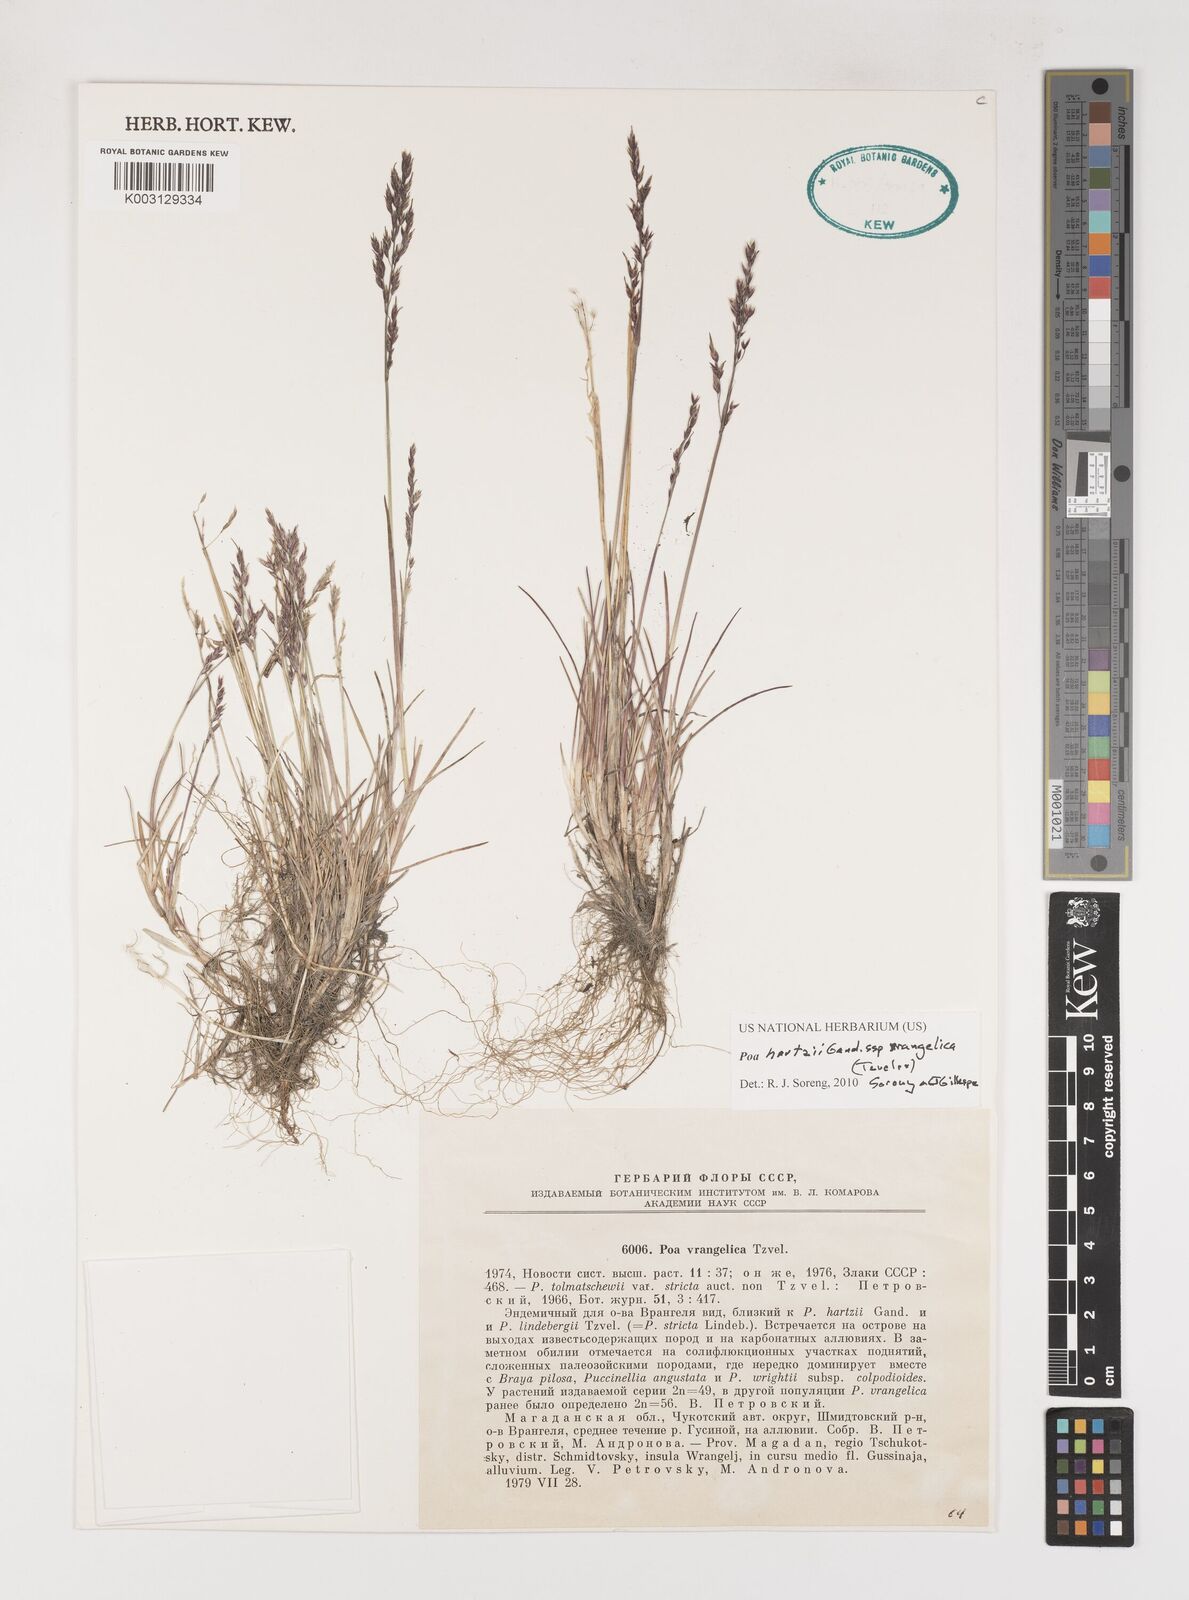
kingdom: Plantae
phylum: Tracheophyta
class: Liliopsida
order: Poales
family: Poaceae
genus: Poa
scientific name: Poa hartzii
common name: Hartz's bluegrass
